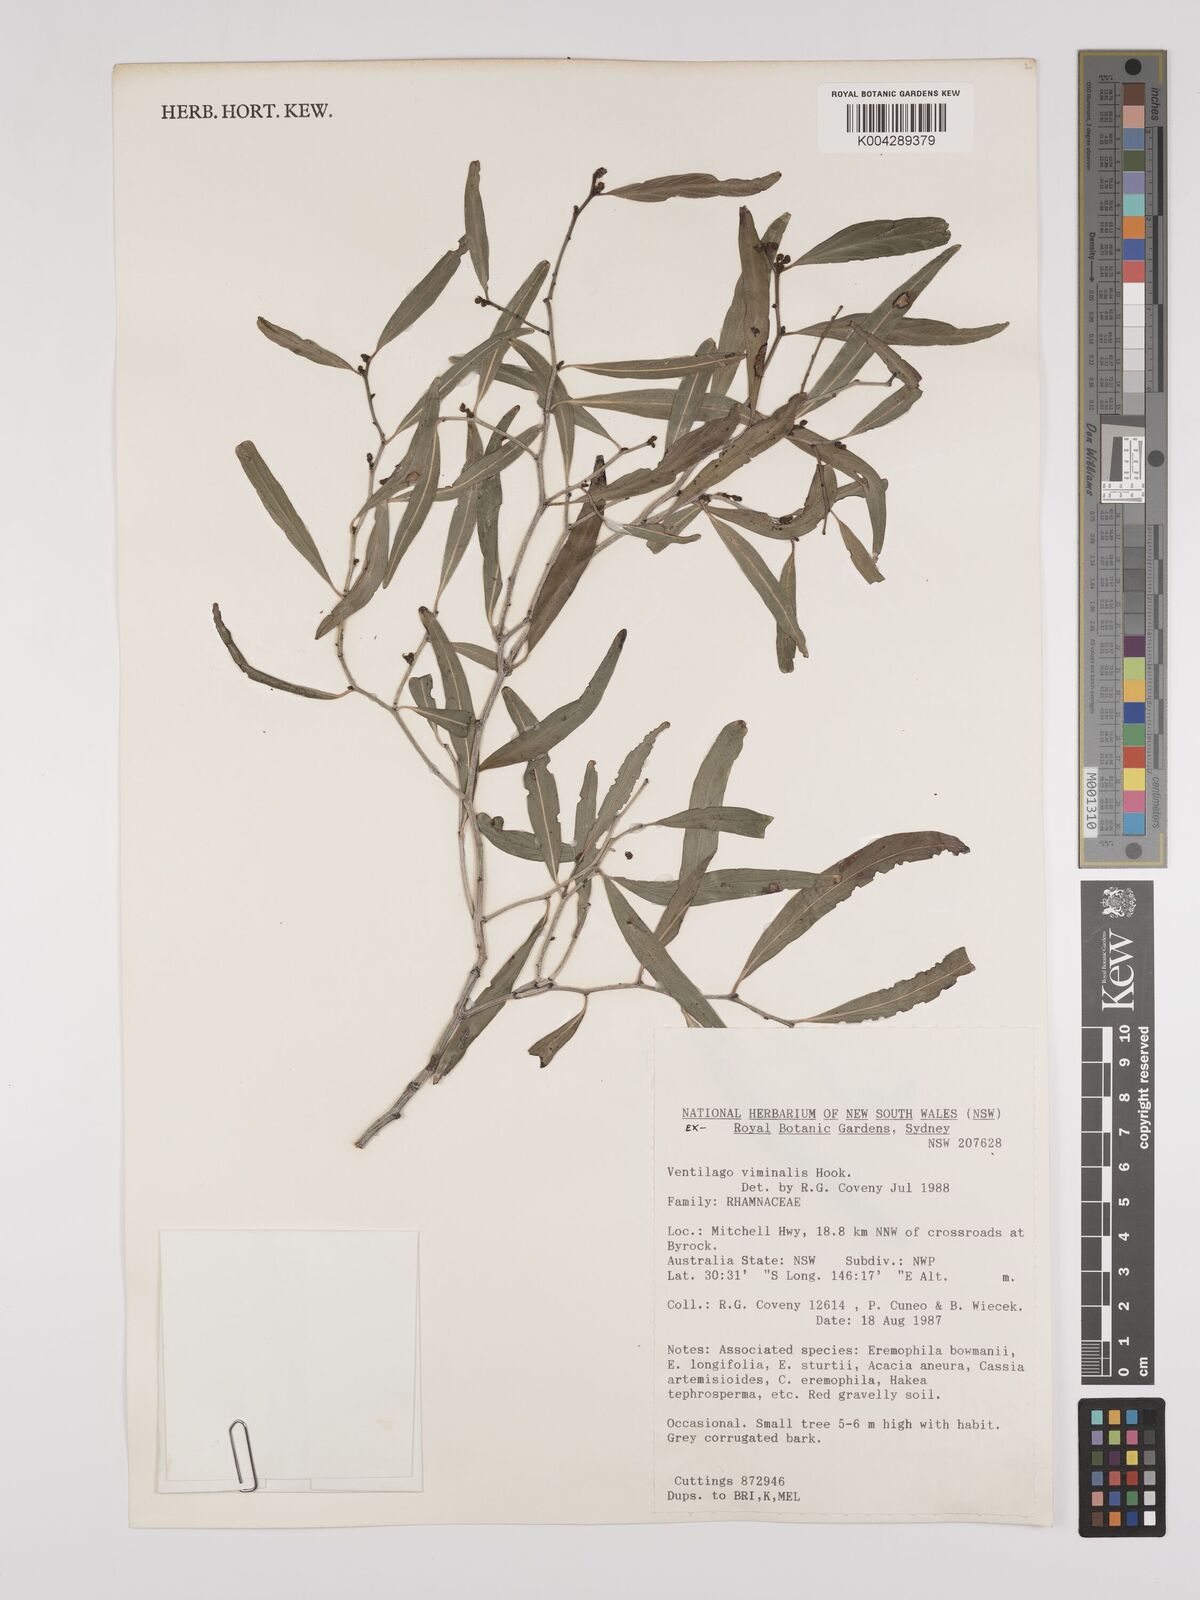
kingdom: Plantae
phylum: Tracheophyta
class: Magnoliopsida
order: Rosales
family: Rhamnaceae
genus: Ventilago
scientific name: Ventilago viminalis
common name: Medicine-bark
